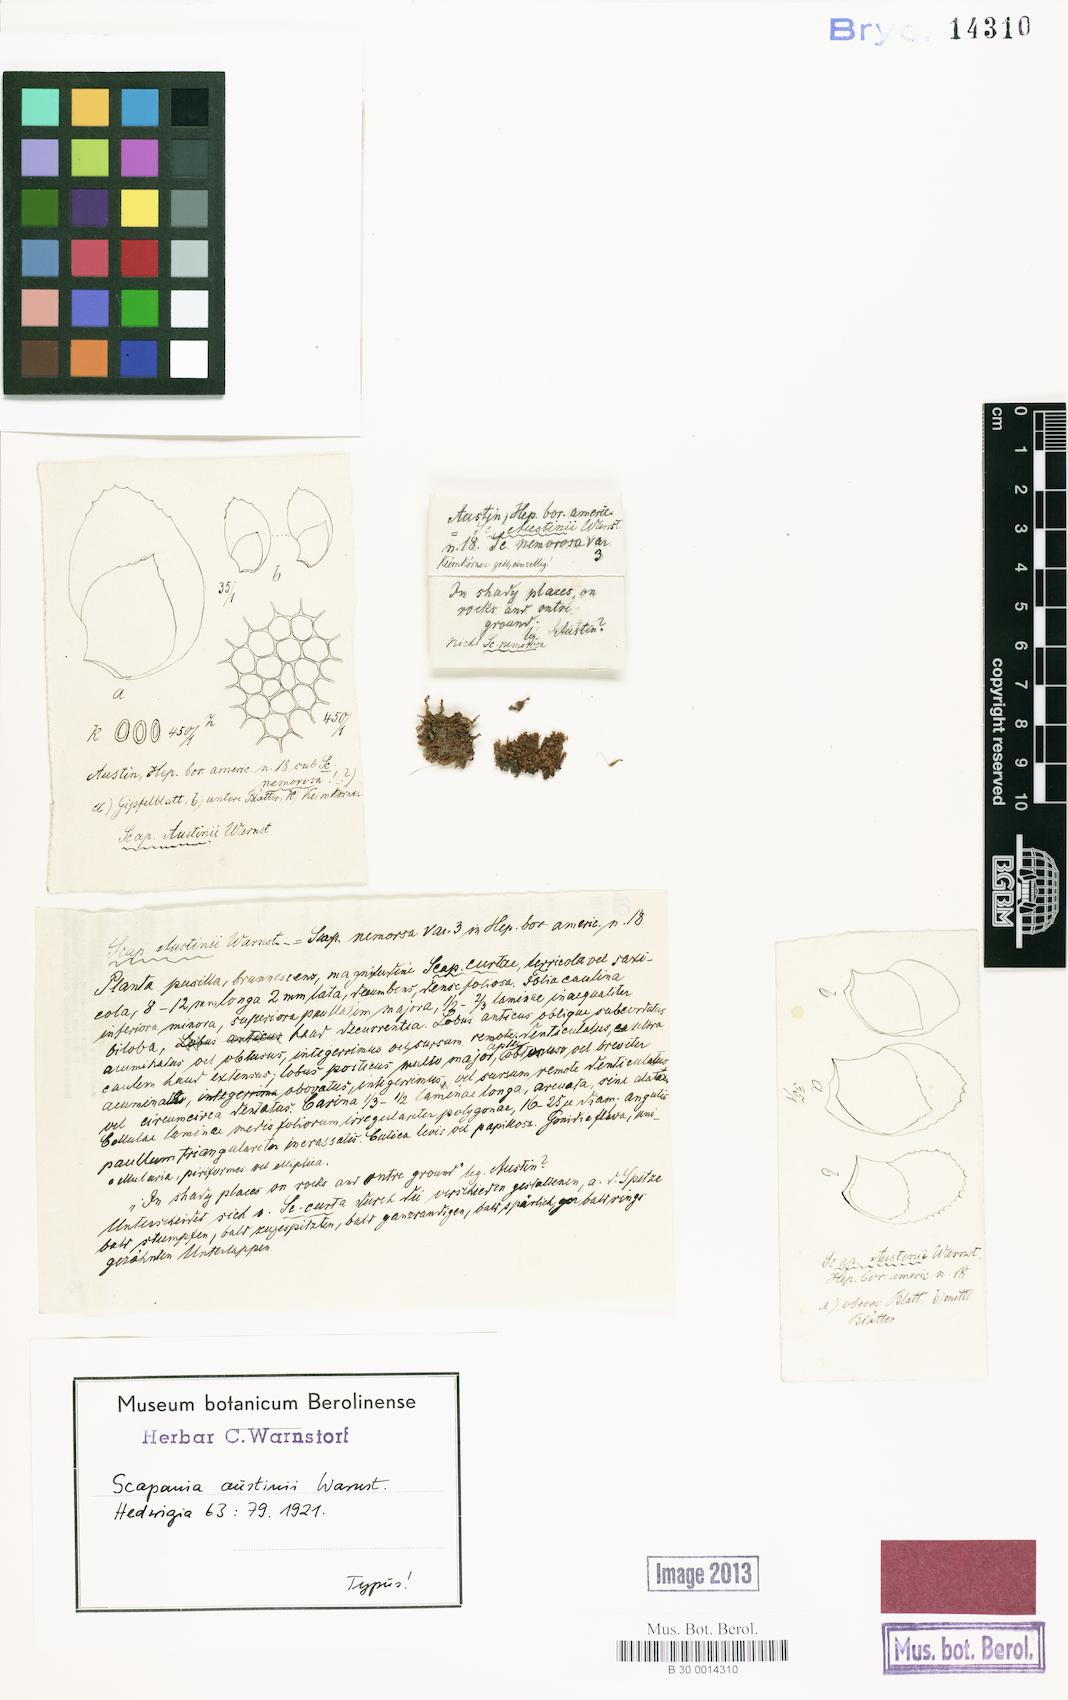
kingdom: Plantae
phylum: Marchantiophyta
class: Jungermanniopsida
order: Jungermanniales
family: Scapaniaceae
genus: Scapania
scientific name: Scapania nemorea
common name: Grove earwort
